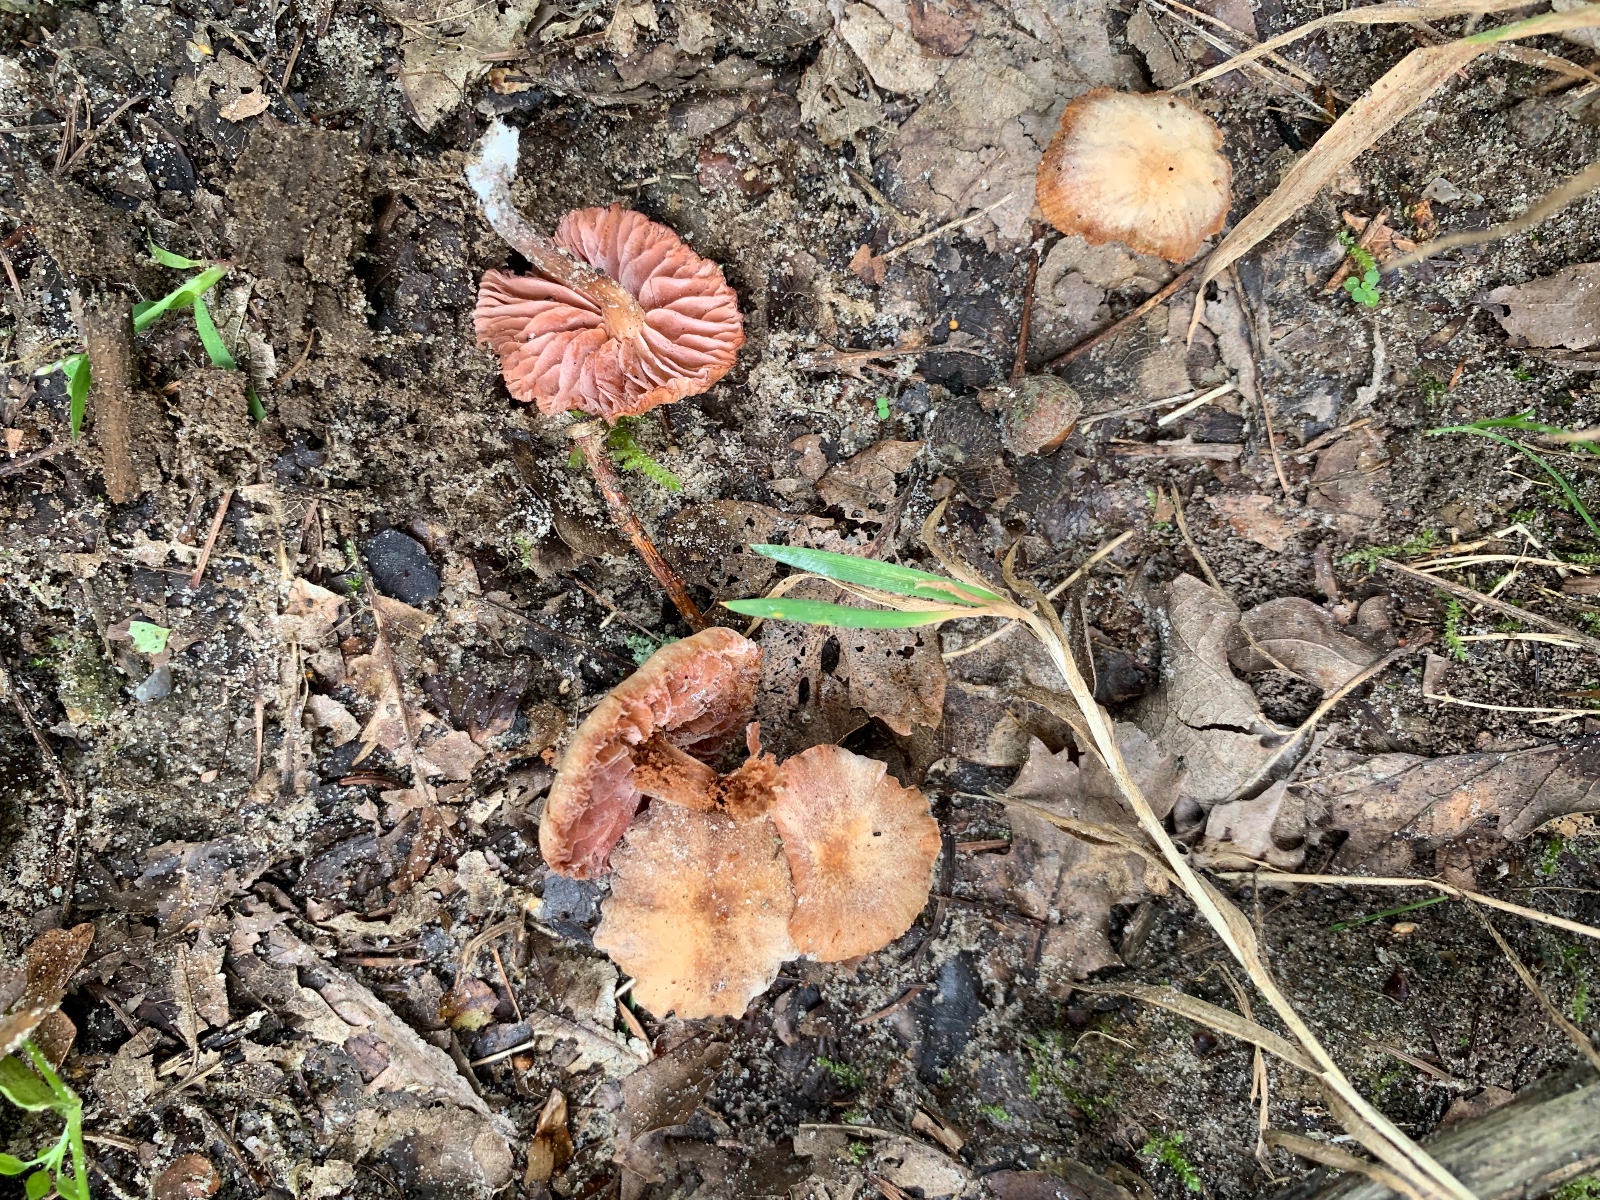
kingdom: Fungi
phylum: Basidiomycota
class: Agaricomycetes
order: Agaricales
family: Hydnangiaceae
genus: Laccaria
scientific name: Laccaria laccata
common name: rød ametysthat
